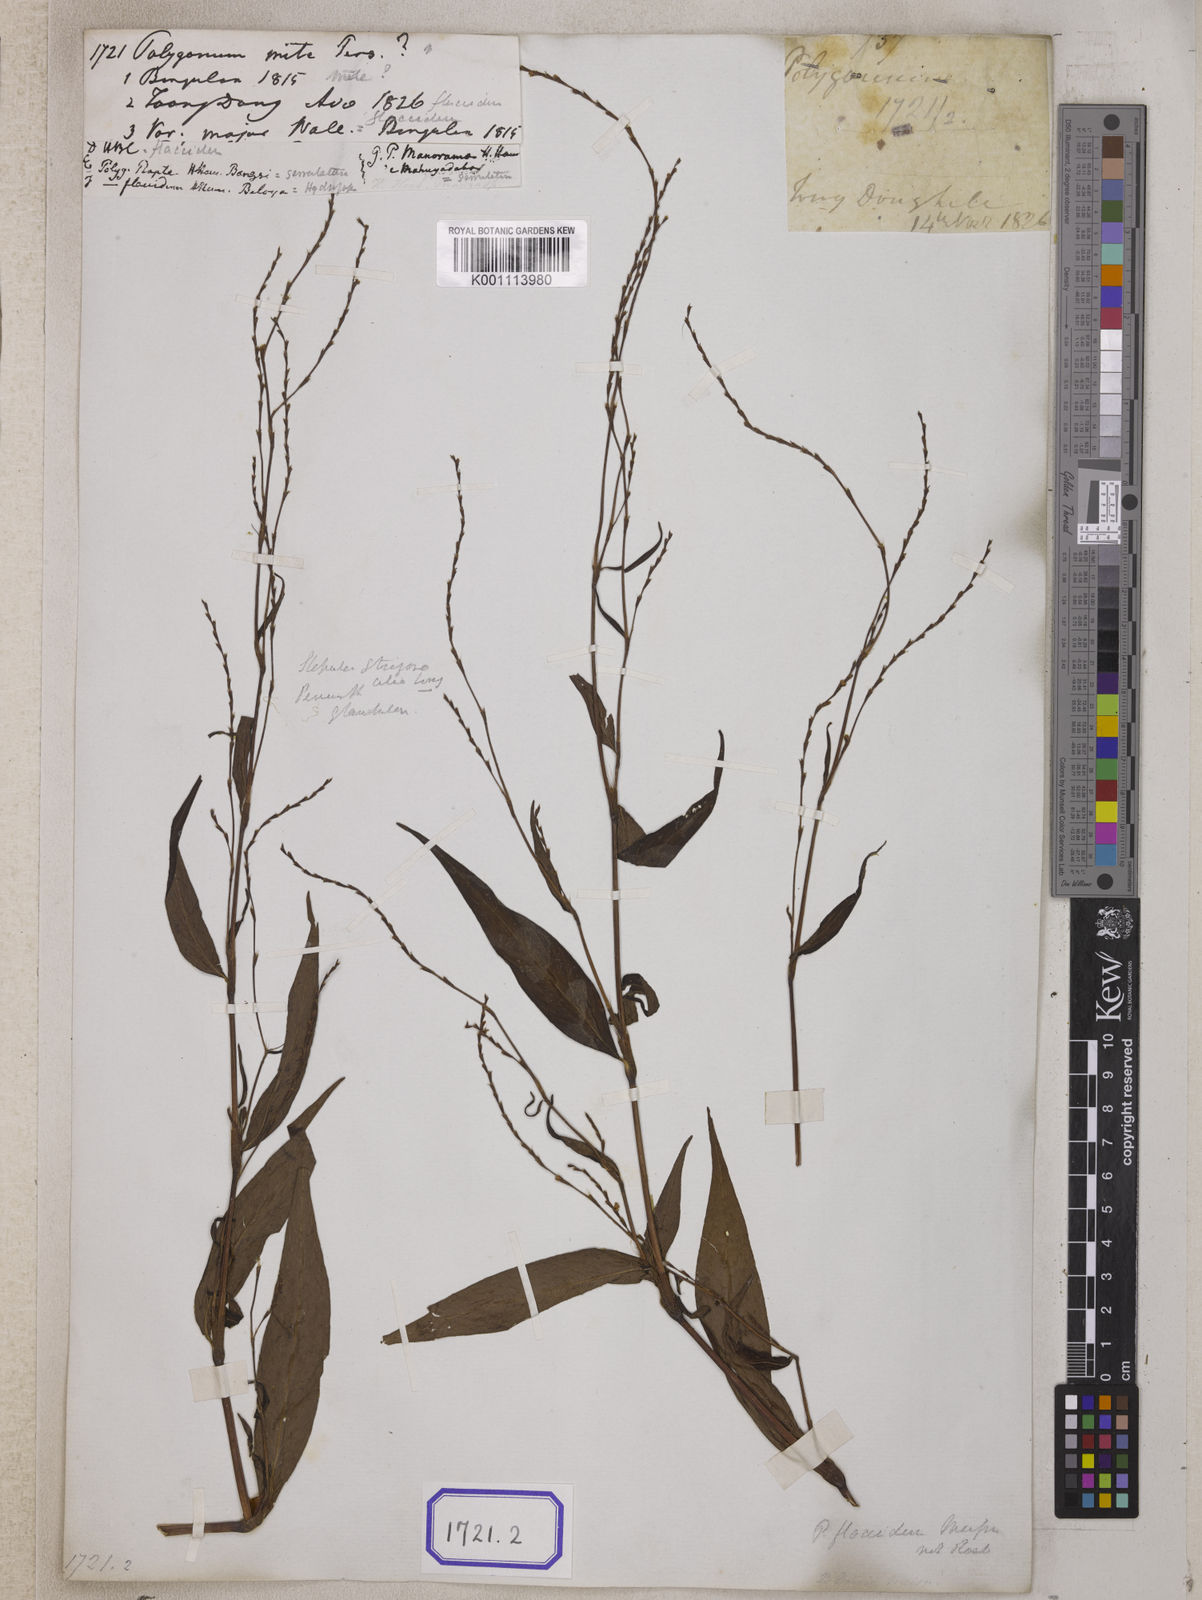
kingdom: Plantae
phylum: Tracheophyta
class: Magnoliopsida
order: Caryophyllales
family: Polygonaceae
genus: Persicaria
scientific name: Persicaria hydropiperoides
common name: Swamp smartweed
